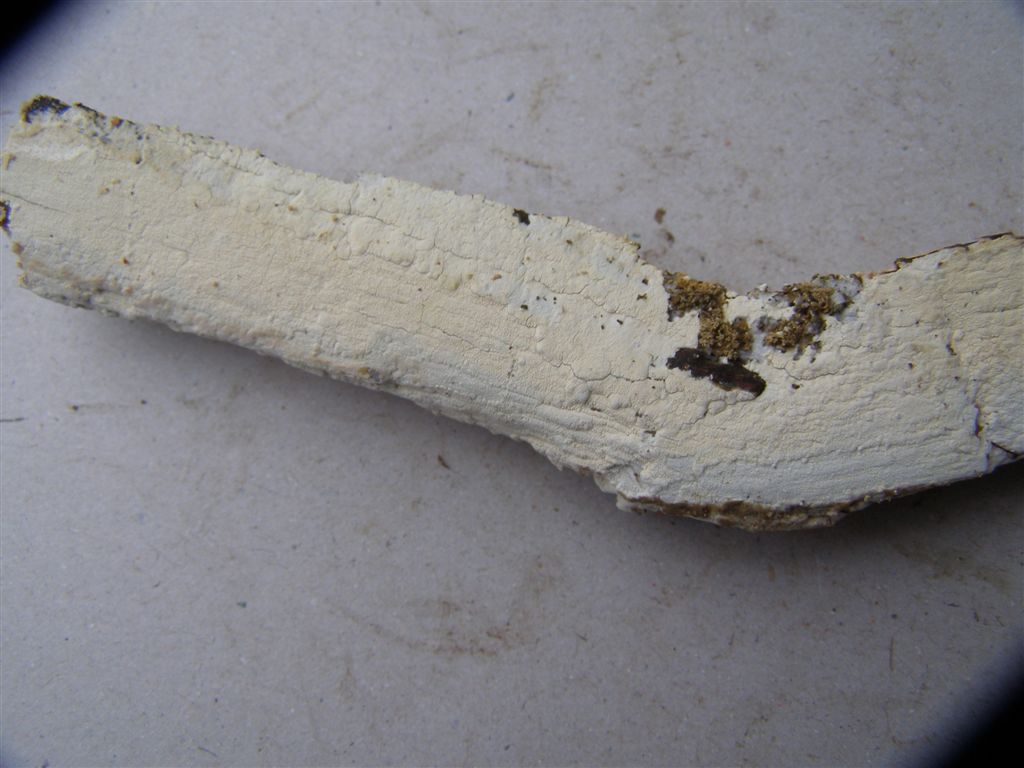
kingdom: Fungi
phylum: Basidiomycota
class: Agaricomycetes
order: Hymenochaetales
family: Schizoporaceae
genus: Xylodon
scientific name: Xylodon brevisetus
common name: tætvortet tandsvamp
